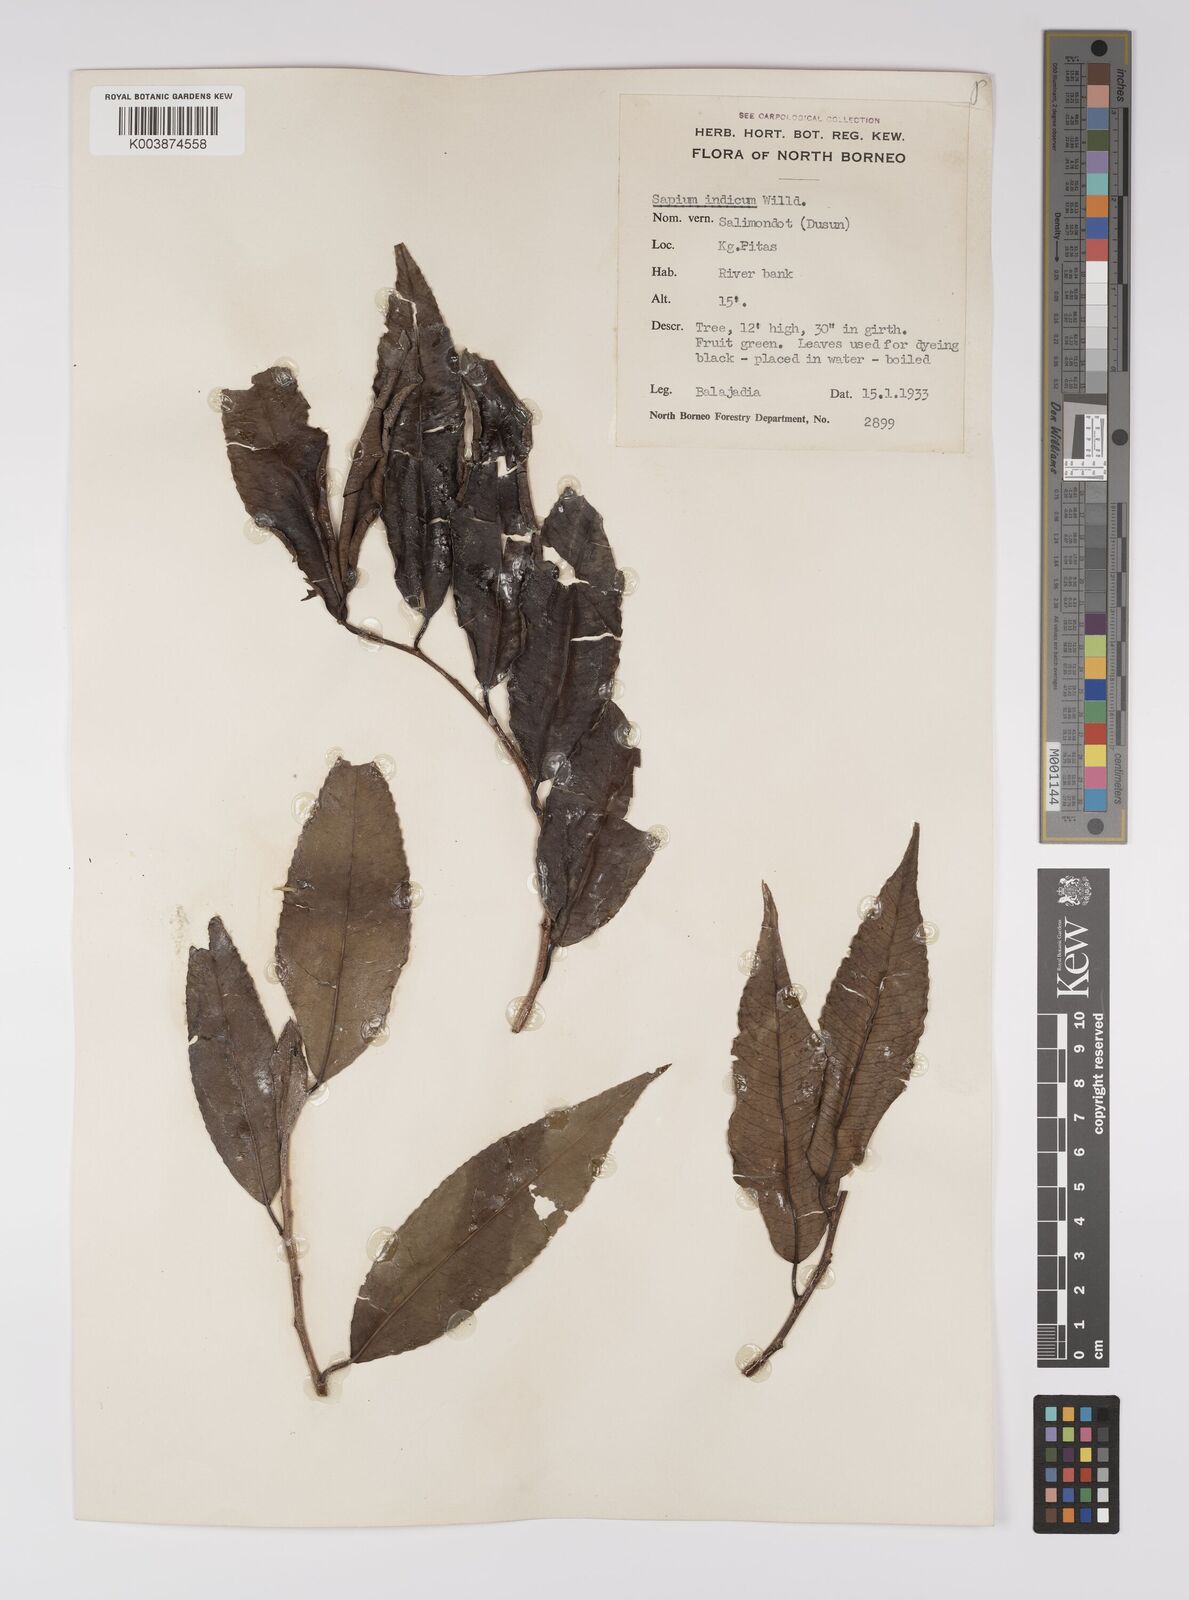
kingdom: Plantae
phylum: Tracheophyta
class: Magnoliopsida
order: Malpighiales
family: Euphorbiaceae
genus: Shirakiopsis
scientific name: Shirakiopsis indica
